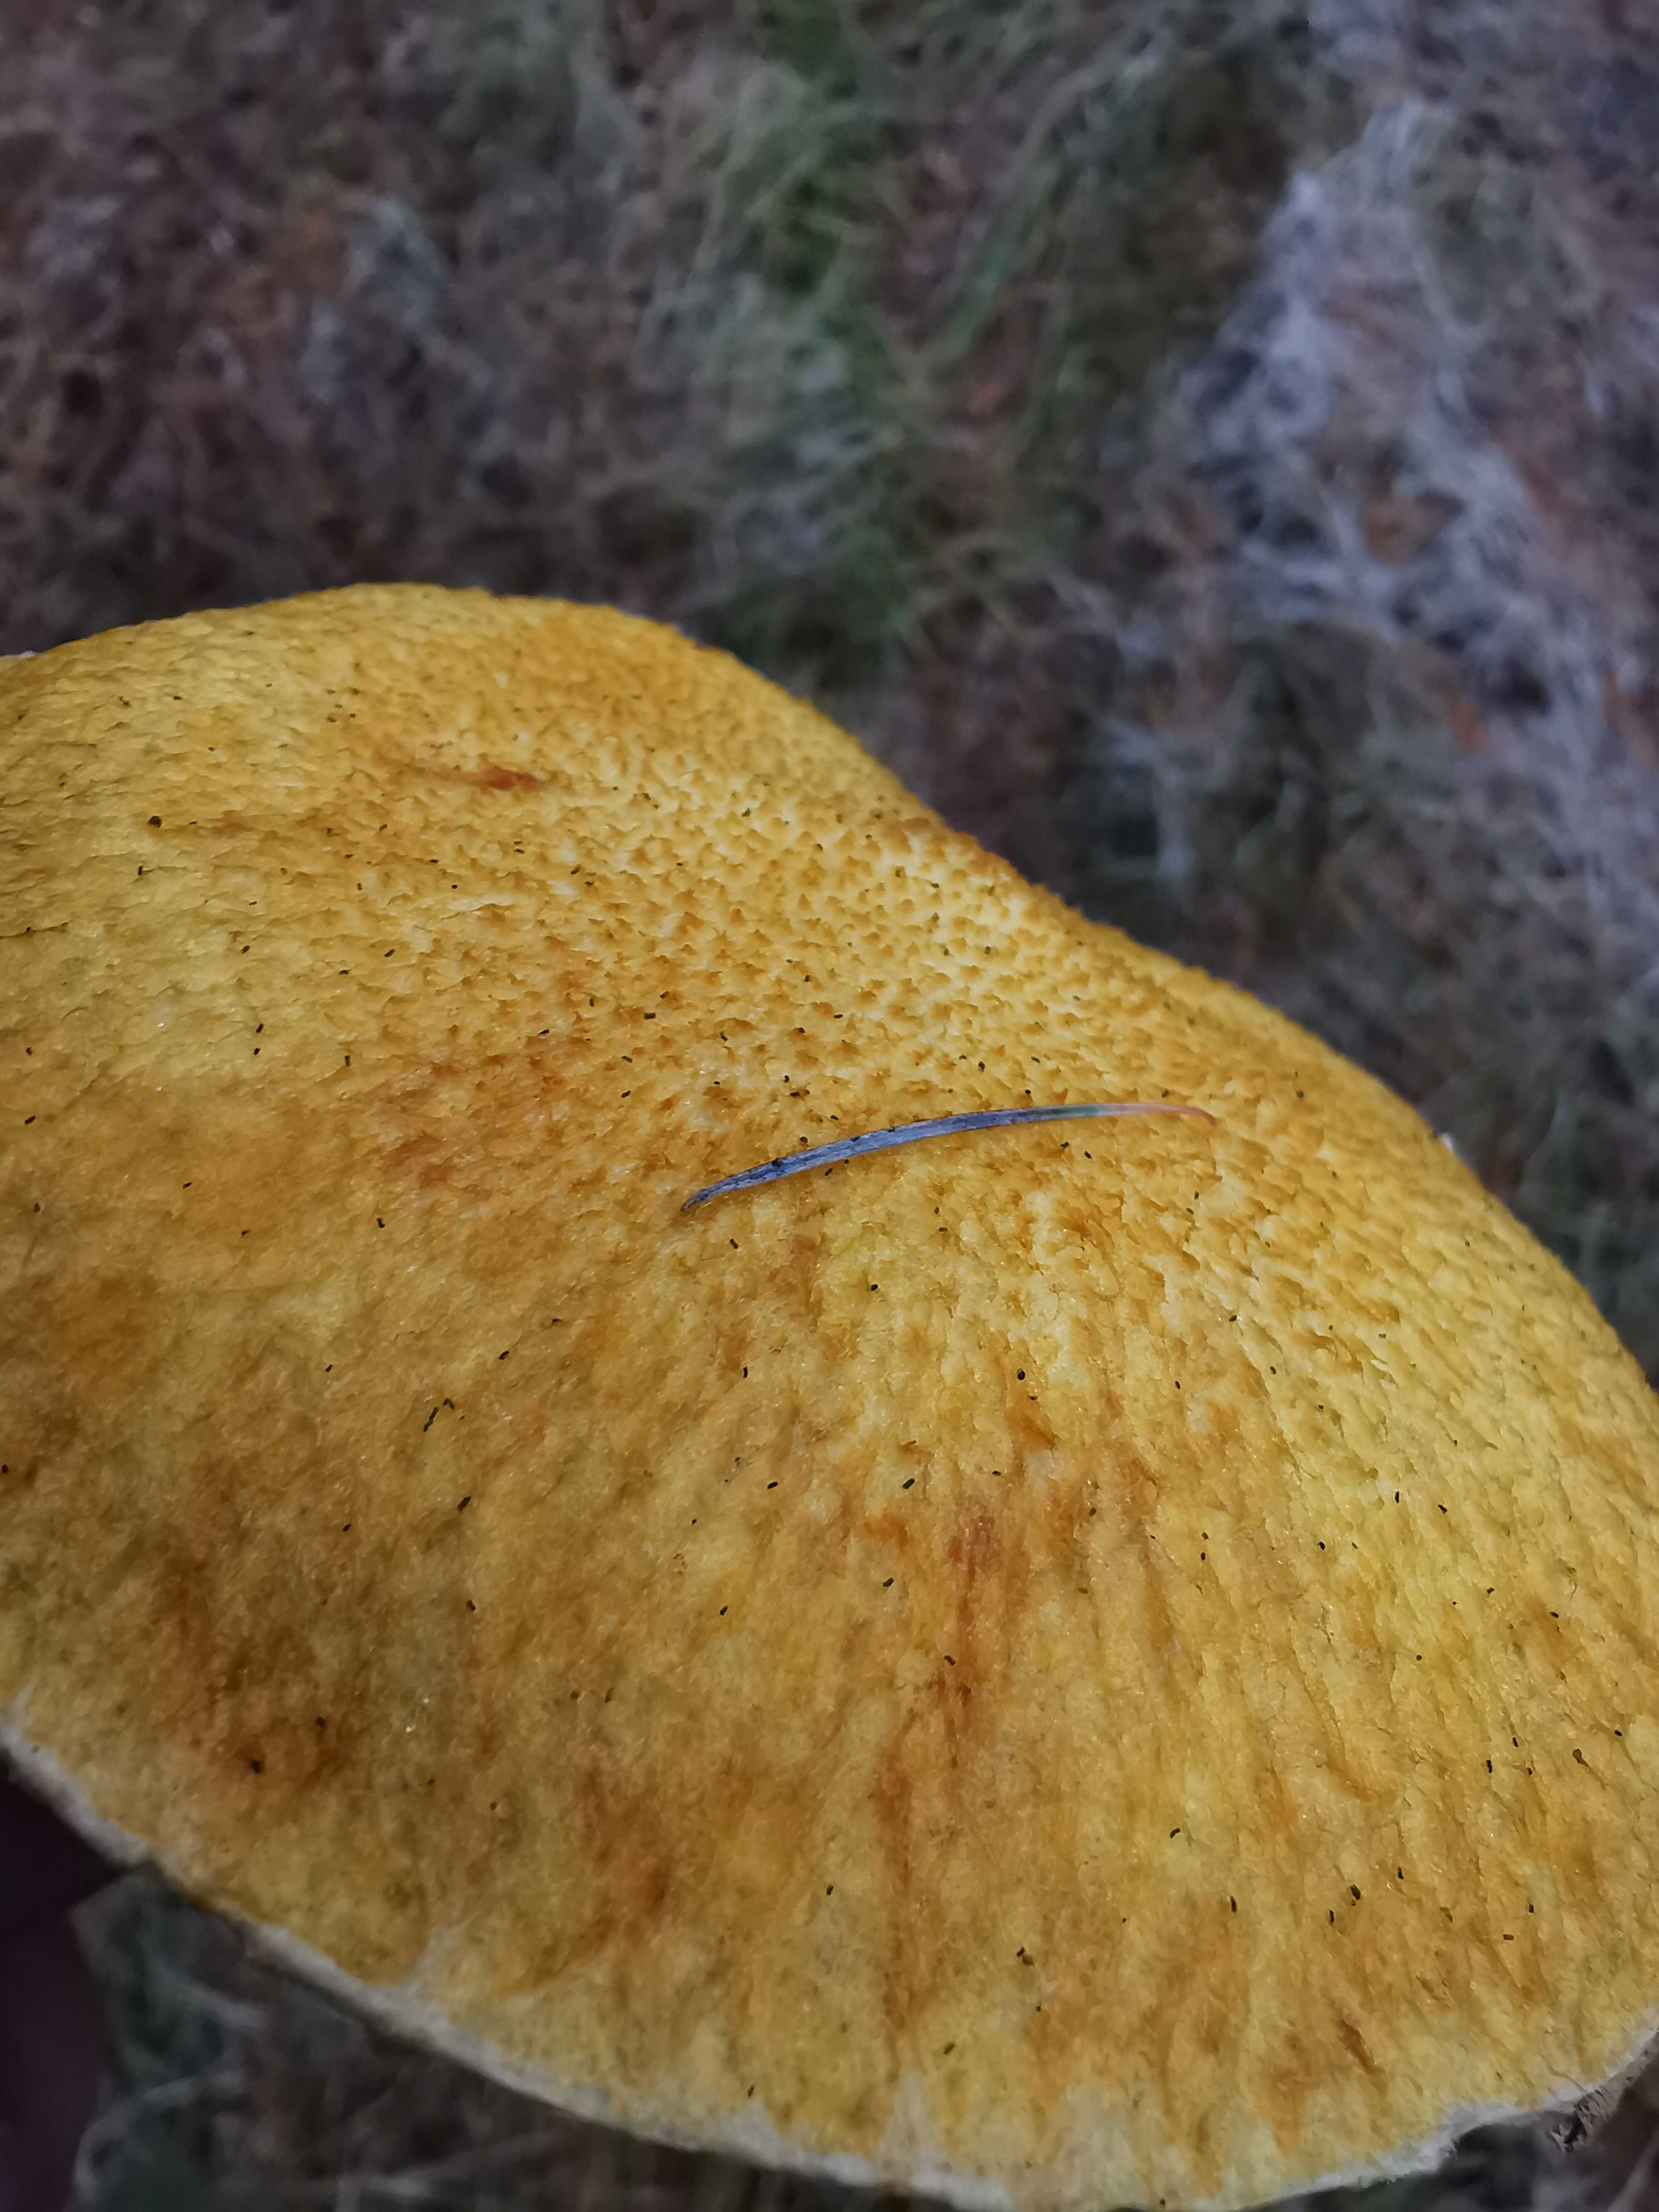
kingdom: Fungi
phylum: Basidiomycota
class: Agaricomycetes
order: Boletales
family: Suillaceae
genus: Suillus
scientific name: Suillus cavipes
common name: hulstokket slimrørhat, gul form
